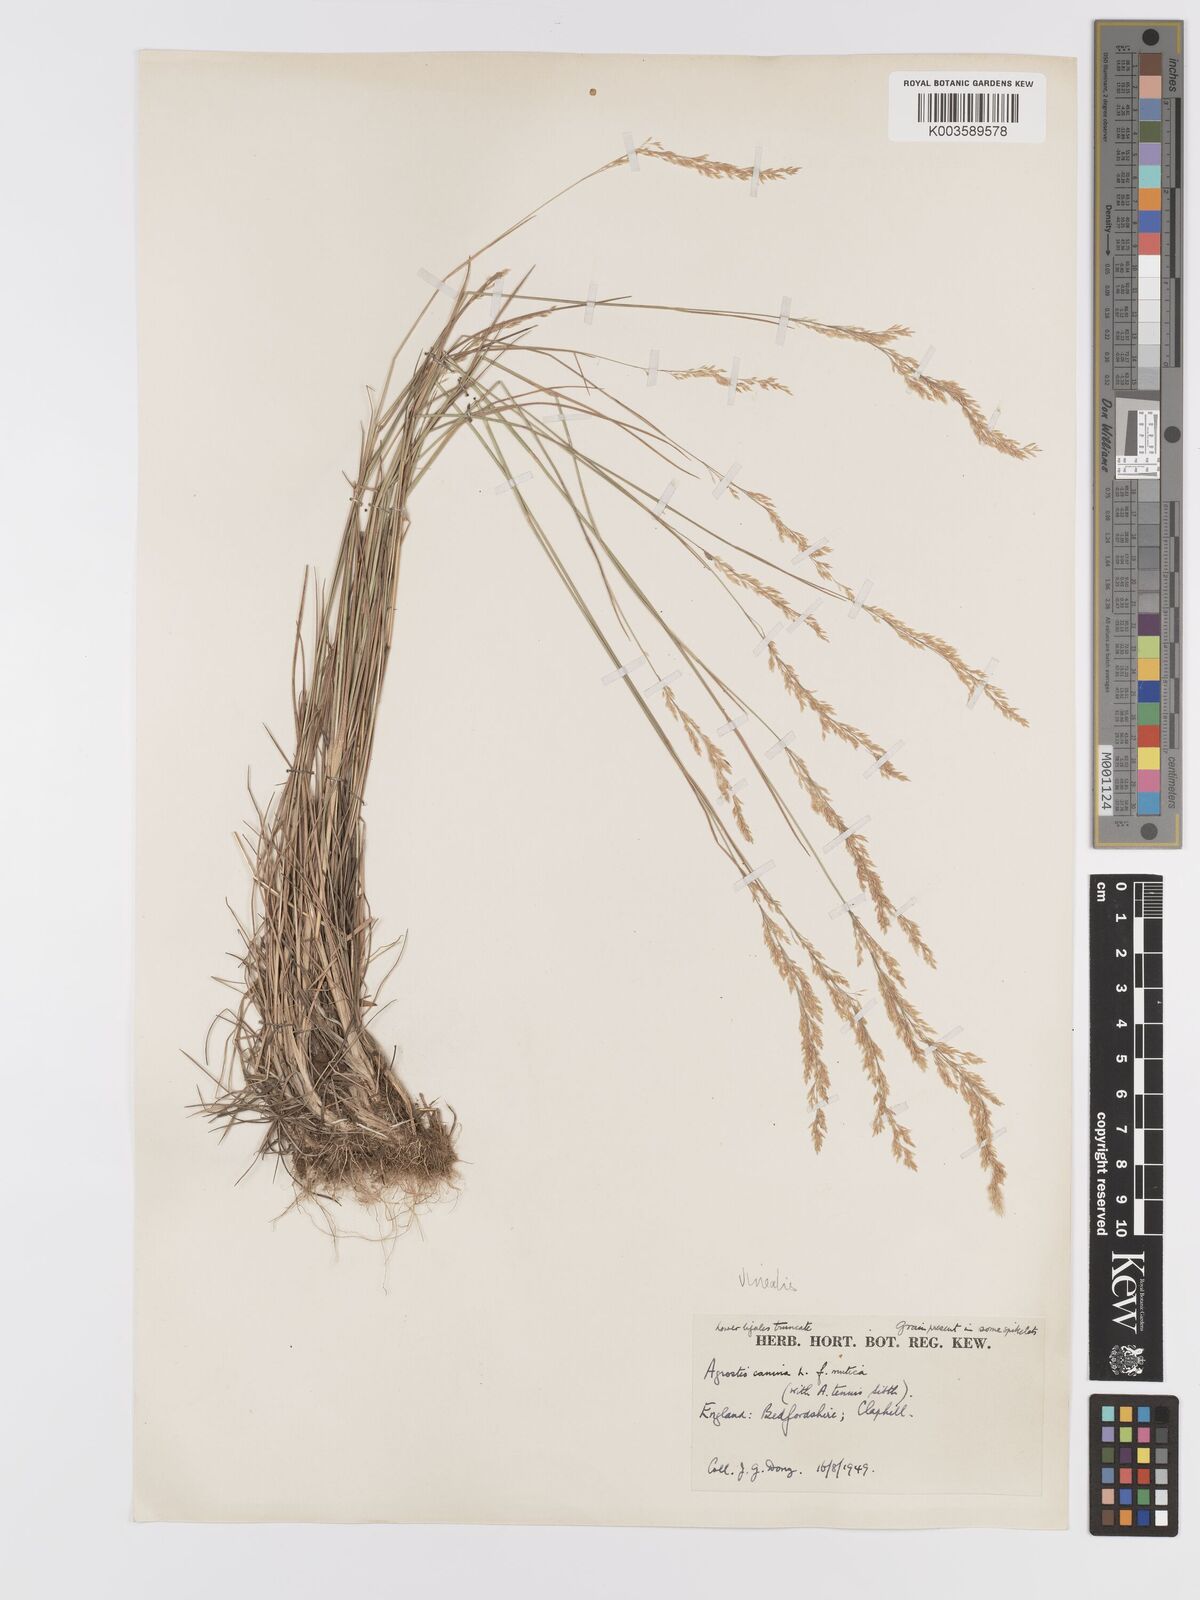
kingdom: Plantae
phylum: Tracheophyta
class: Liliopsida
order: Poales
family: Poaceae
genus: Agrostis
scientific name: Agrostis
